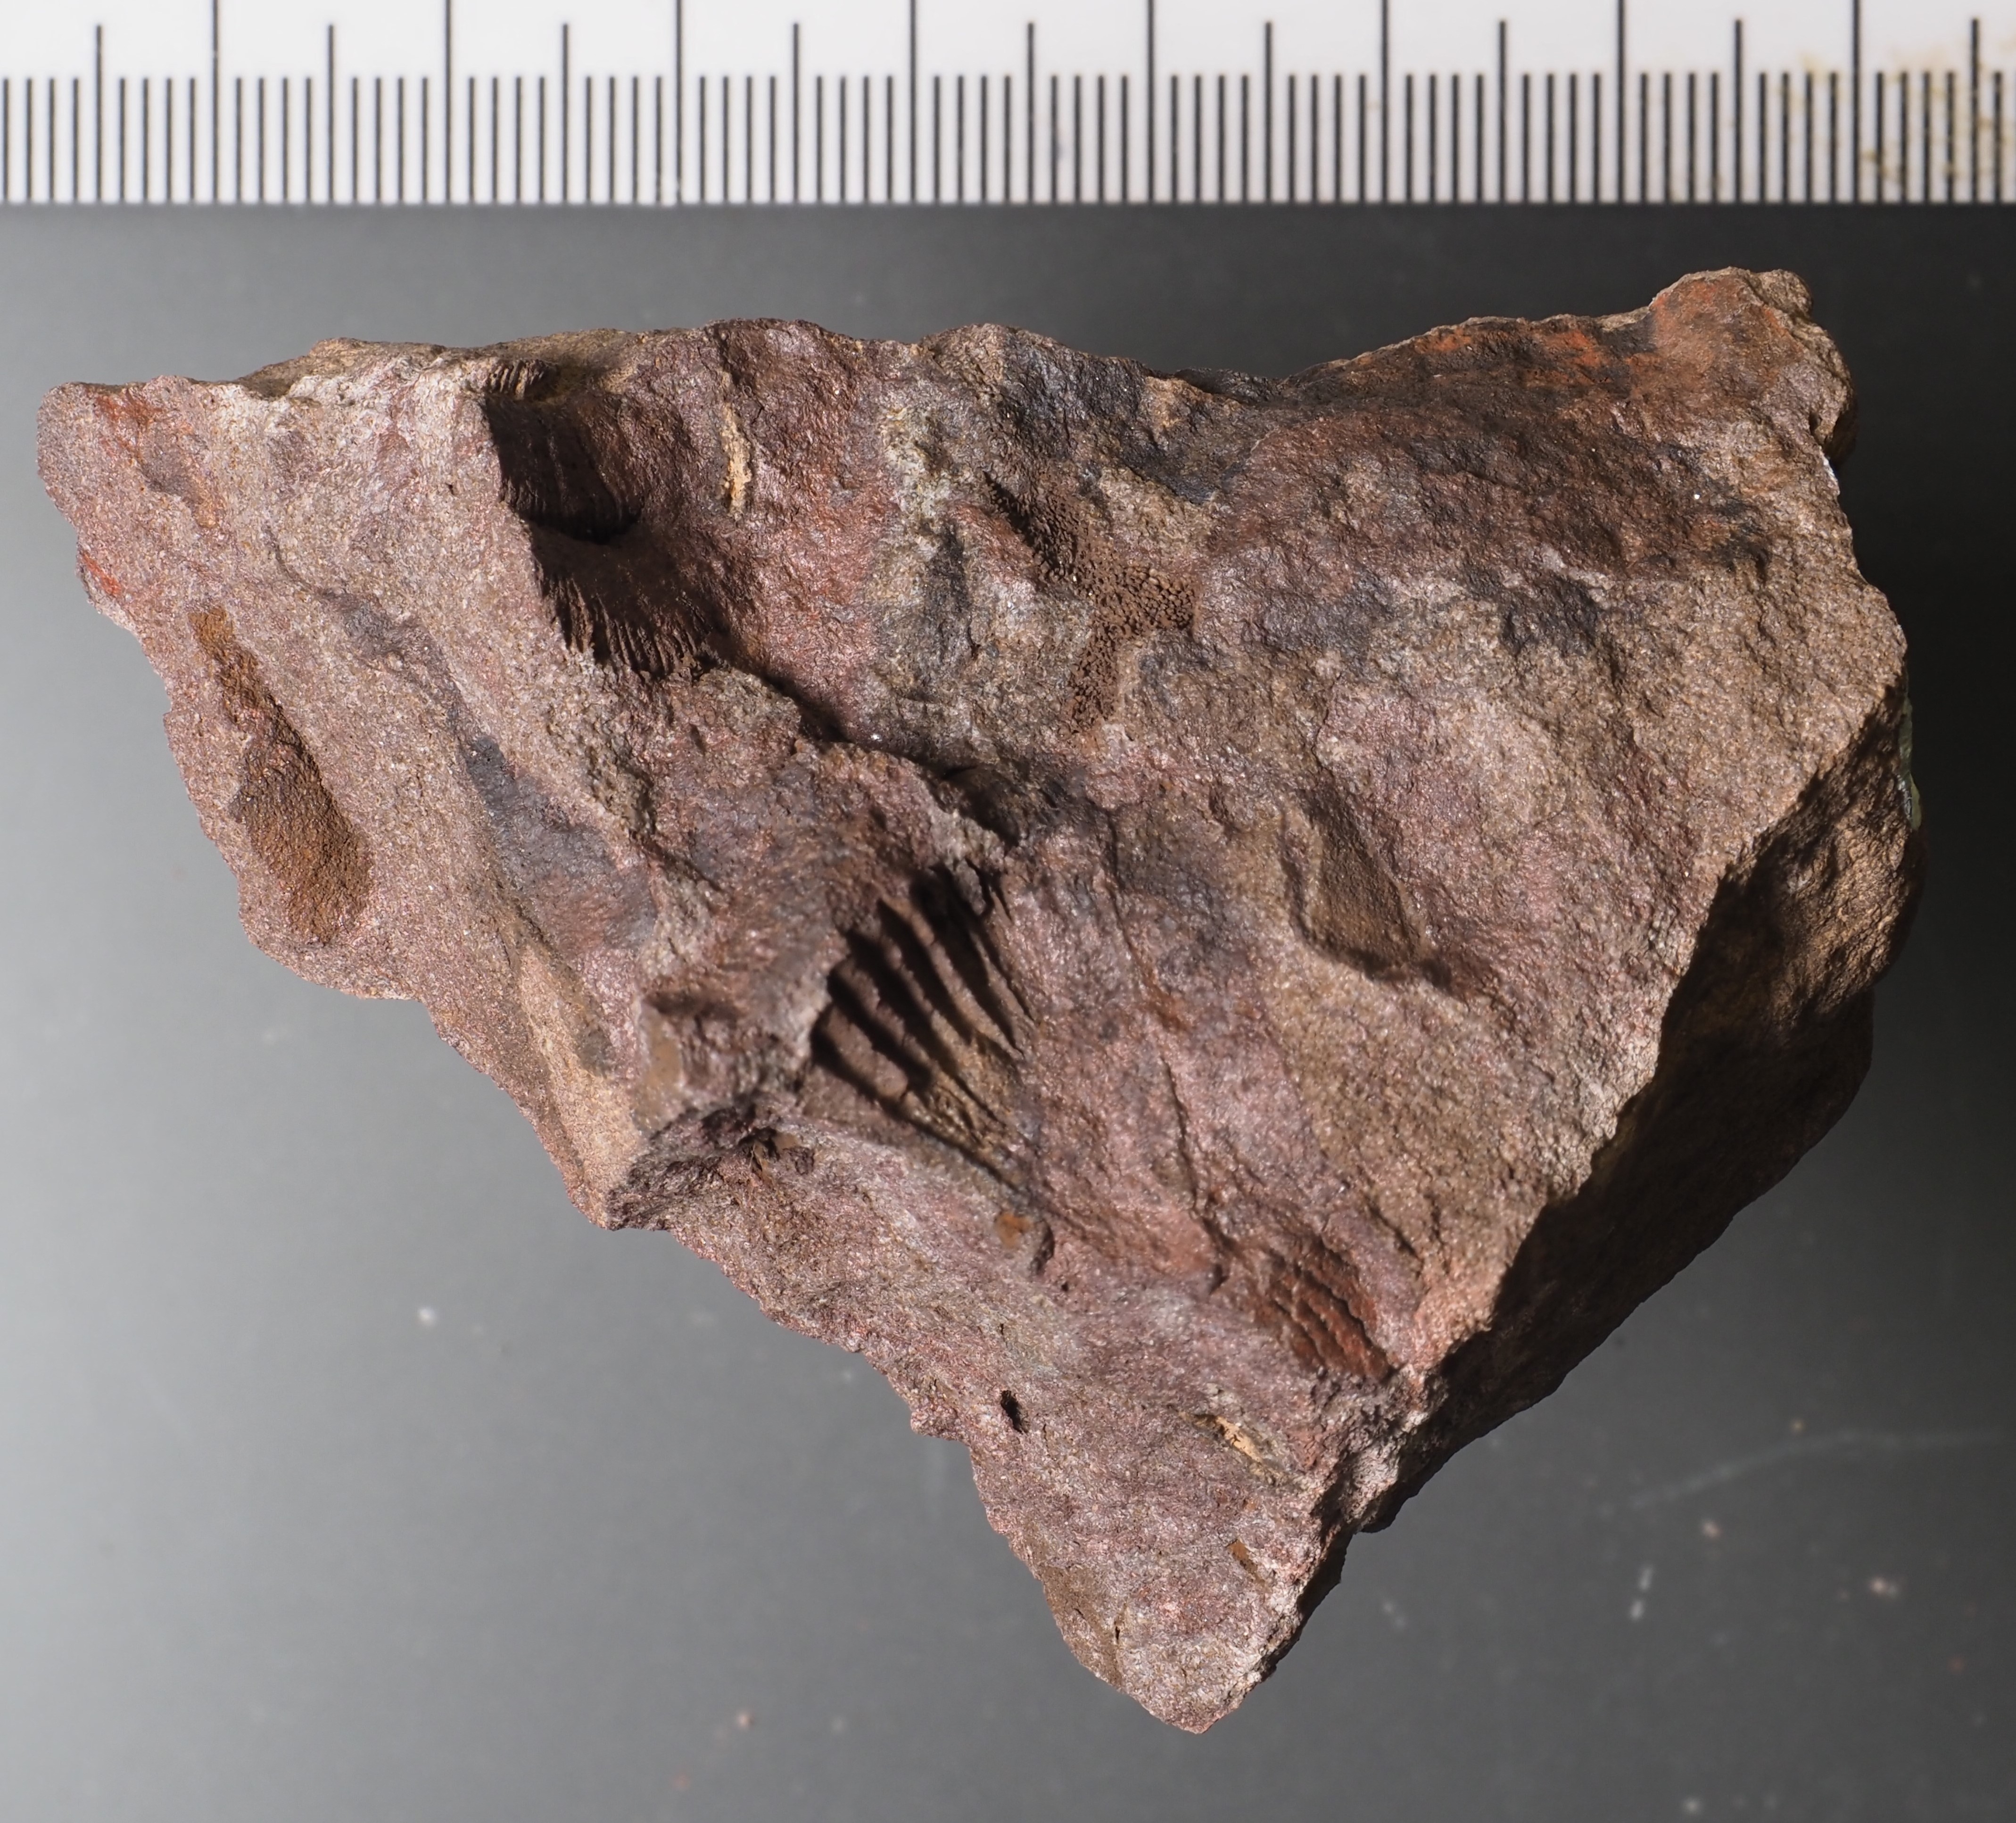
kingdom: Animalia
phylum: Brachiopoda
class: Rhynchonellata
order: Rhynchonellida
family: Trigonirhynchiidae
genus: Oligoptycherhynchus
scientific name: Oligoptycherhynchus
